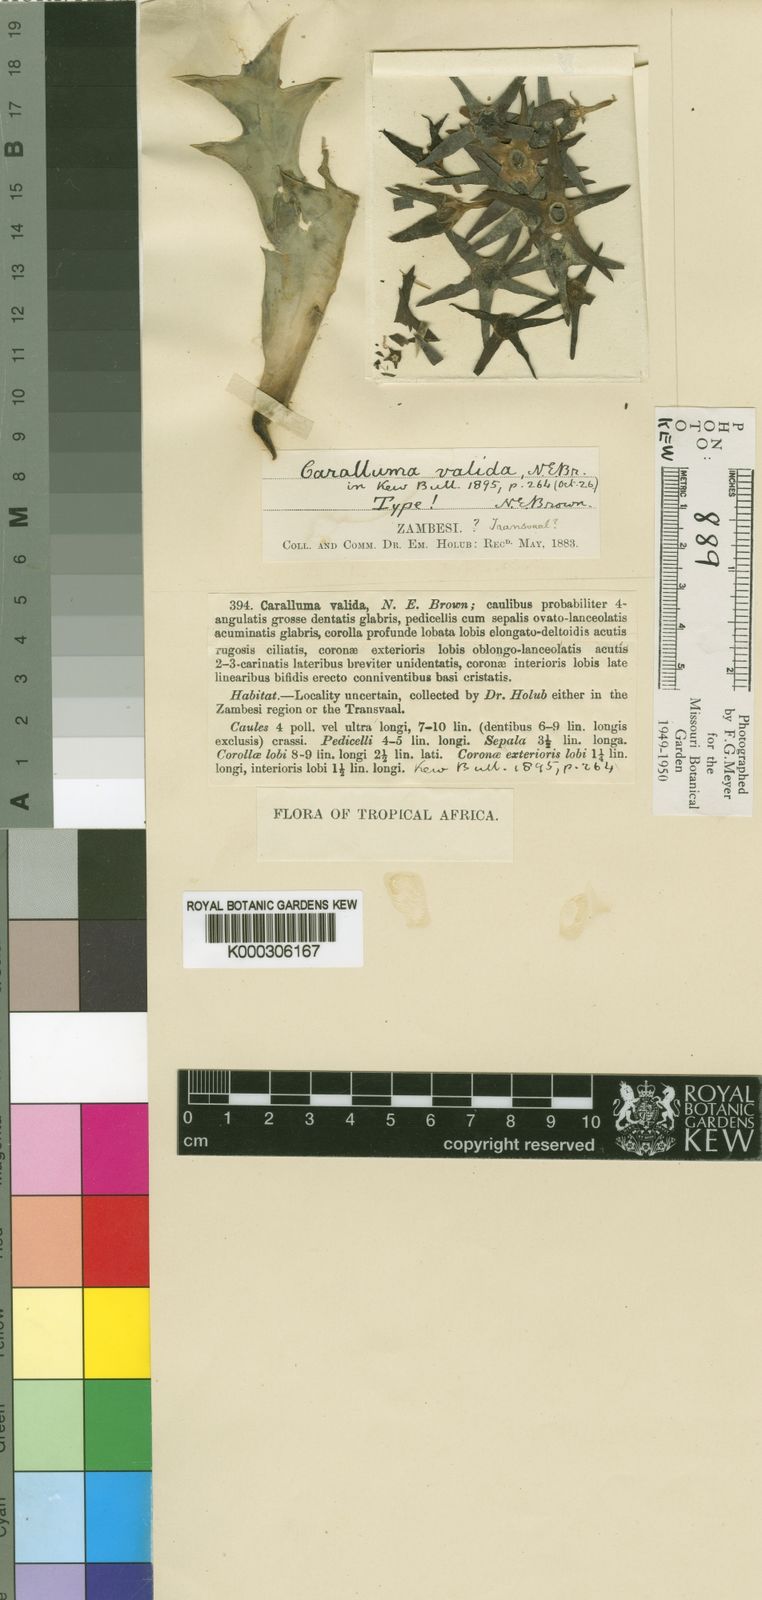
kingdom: Plantae
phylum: Tracheophyta
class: Magnoliopsida
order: Gentianales
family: Apocynaceae
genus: Ceropegia
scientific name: Ceropegia valida
